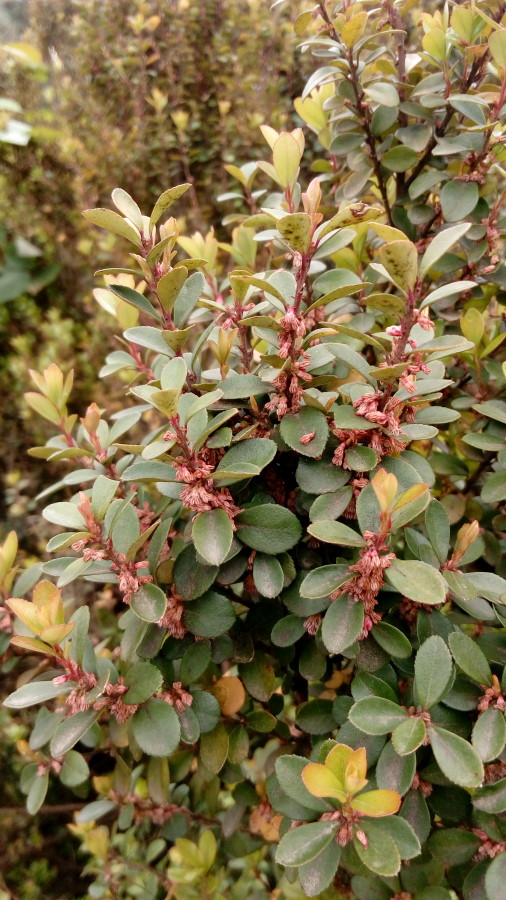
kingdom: Plantae
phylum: Tracheophyta
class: Magnoliopsida
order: Malpighiales
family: Salicaceae
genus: Azara
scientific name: Azara microphylla
